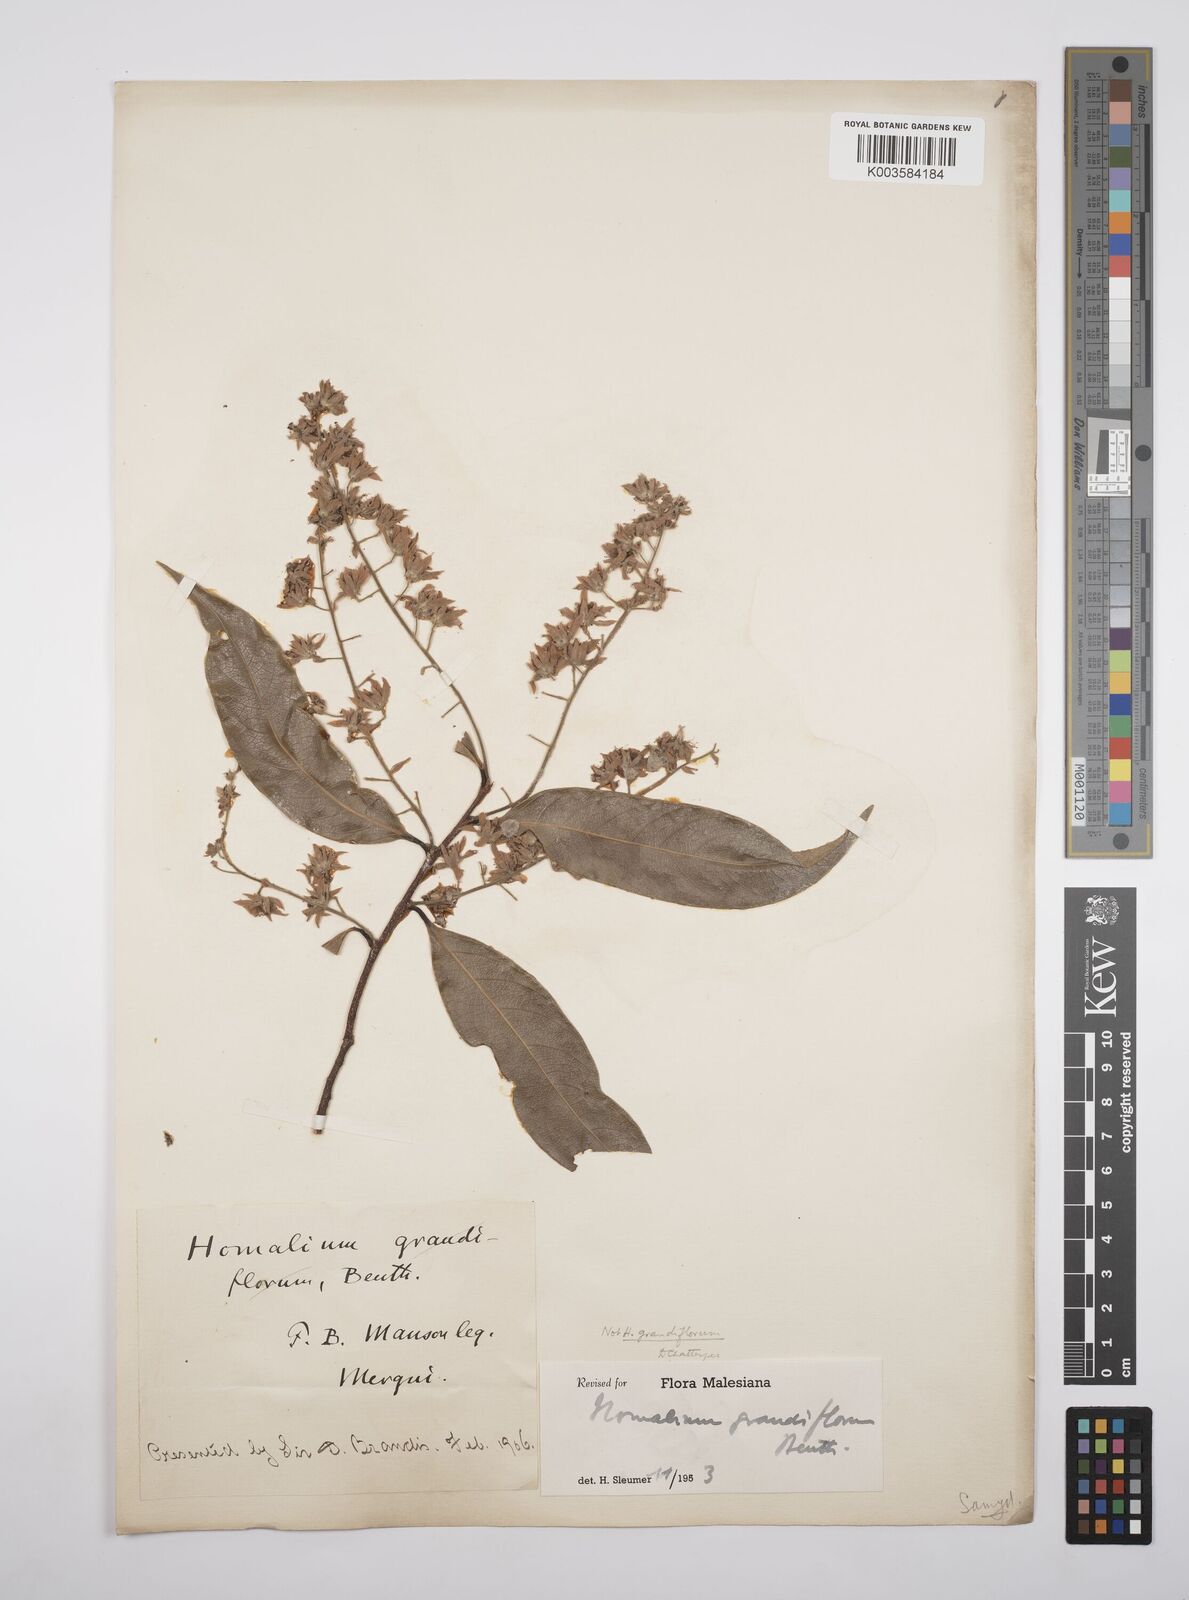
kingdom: Plantae
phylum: Tracheophyta
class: Magnoliopsida
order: Malpighiales
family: Salicaceae
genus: Homalium
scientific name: Homalium grandiflorum
